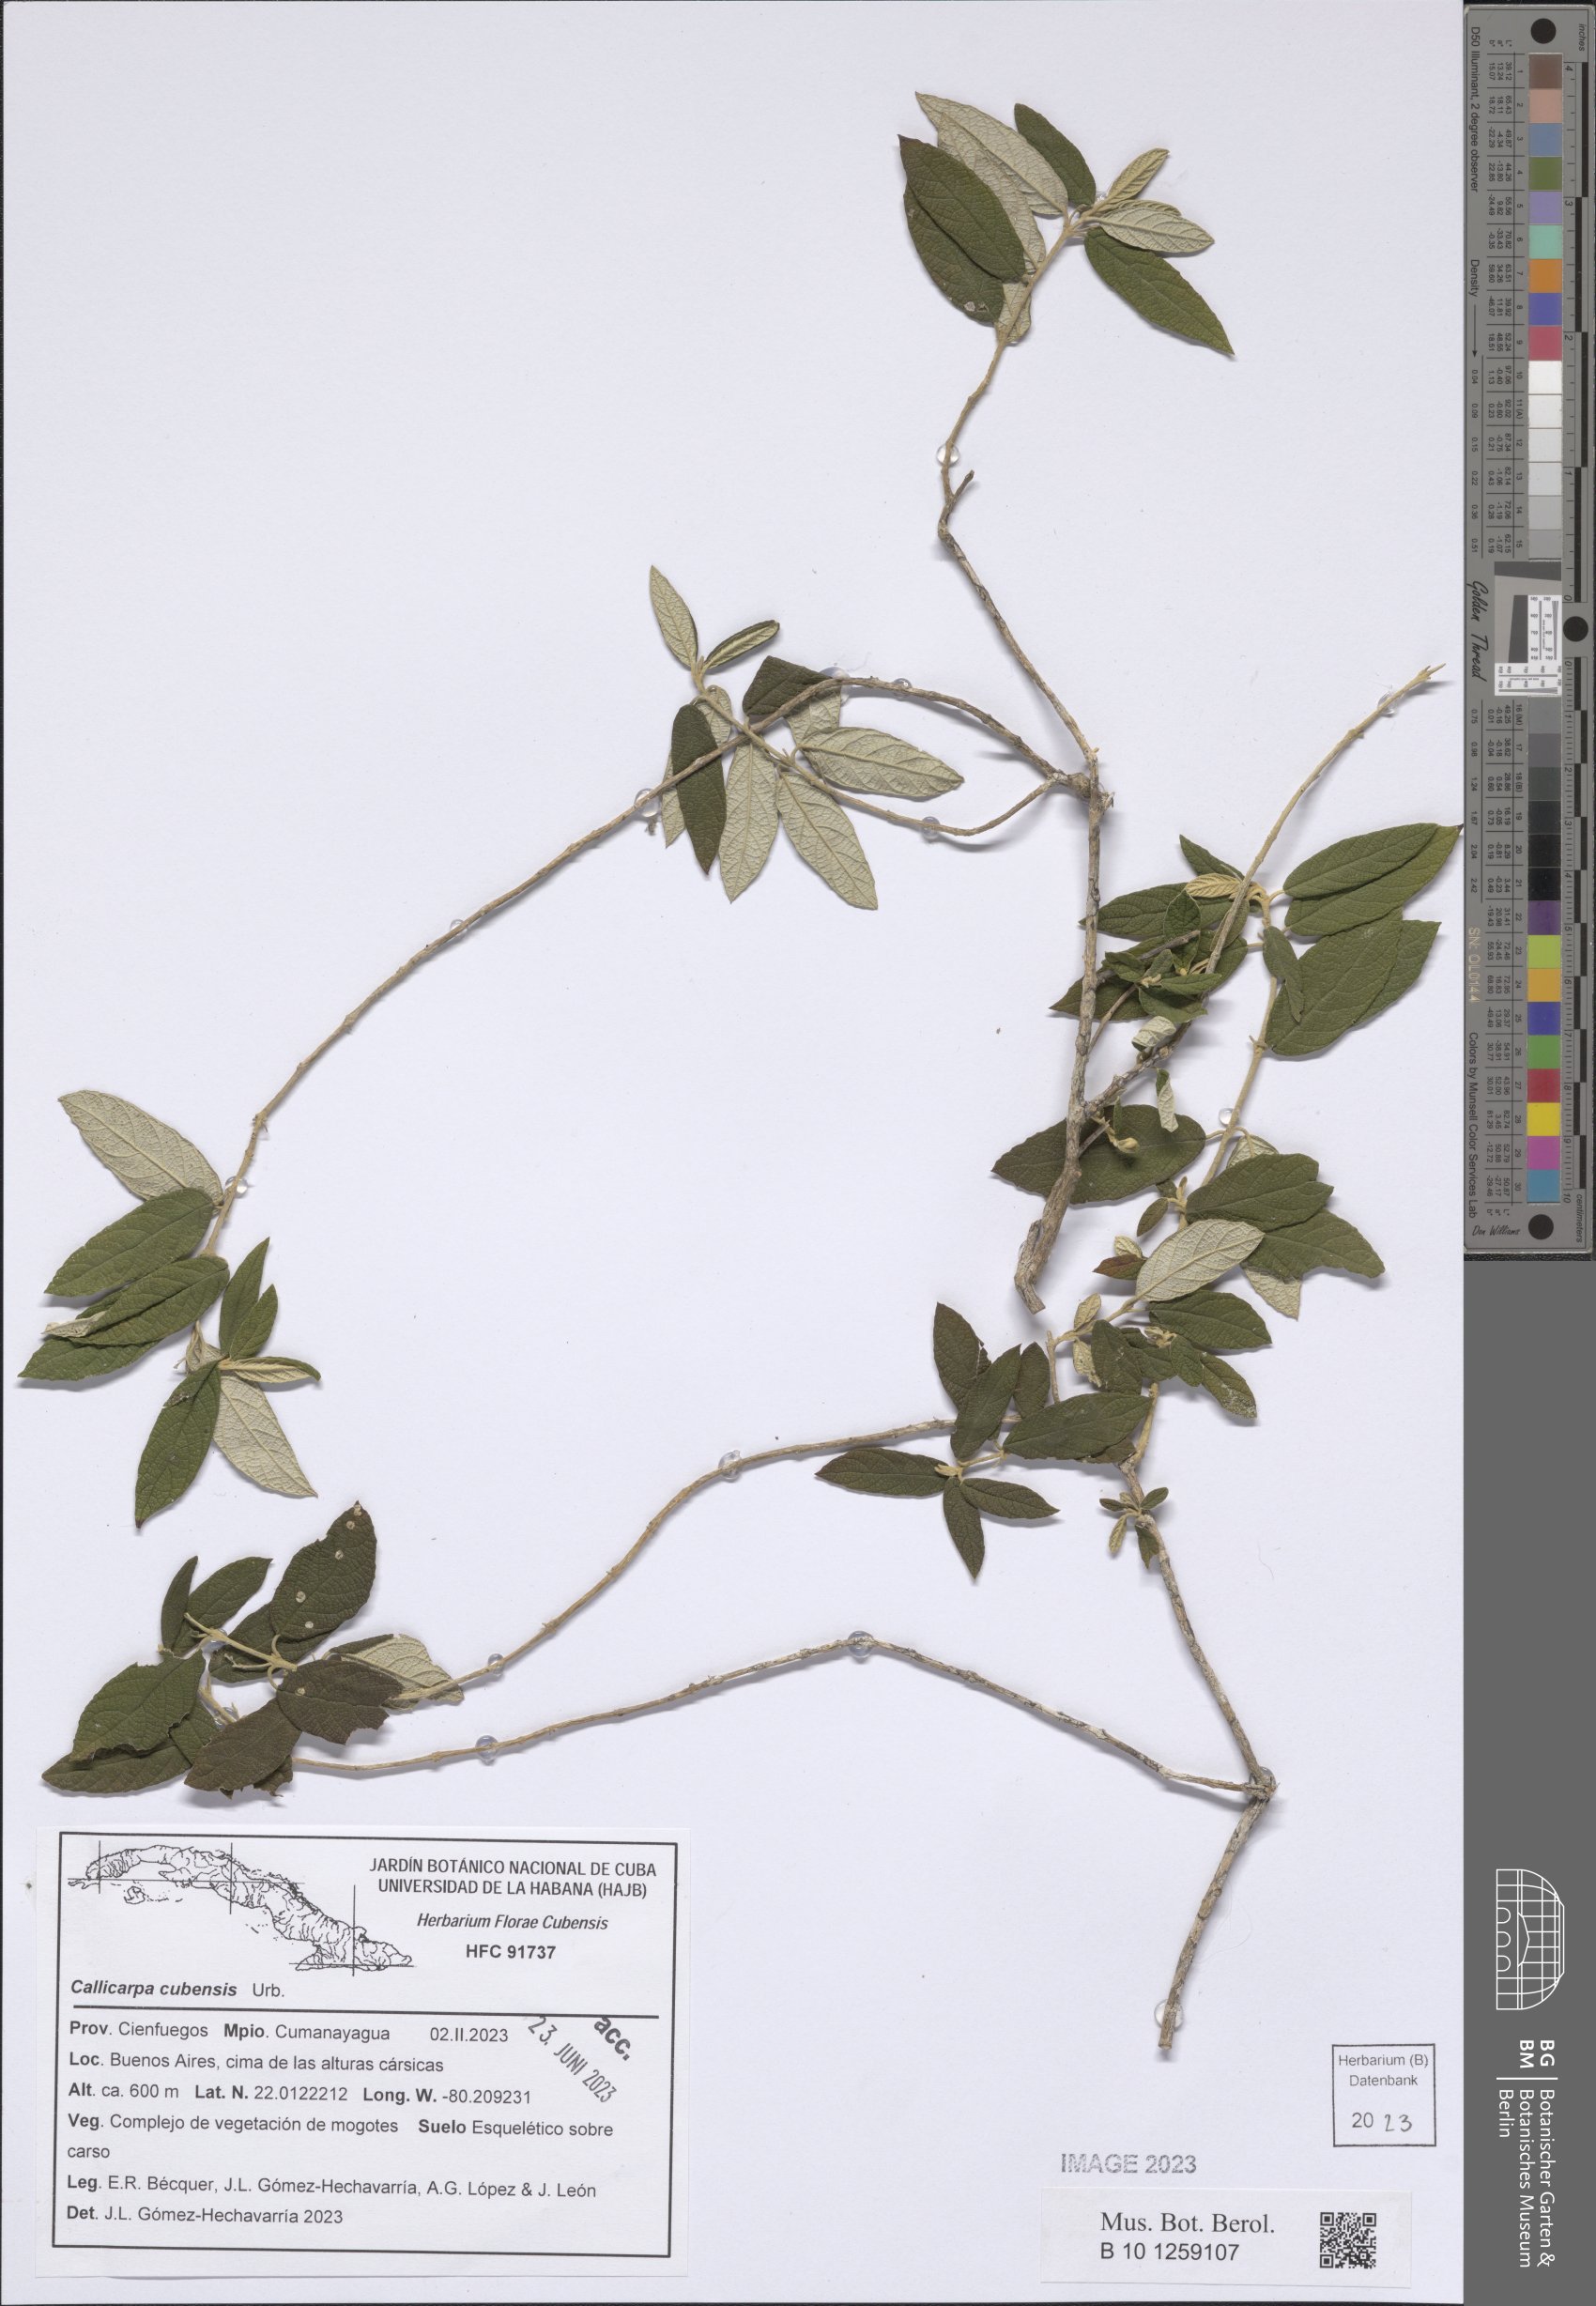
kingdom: Plantae
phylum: Tracheophyta
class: Magnoliopsida
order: Lamiales
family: Lamiaceae
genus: Callicarpa
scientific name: Callicarpa cubensis
